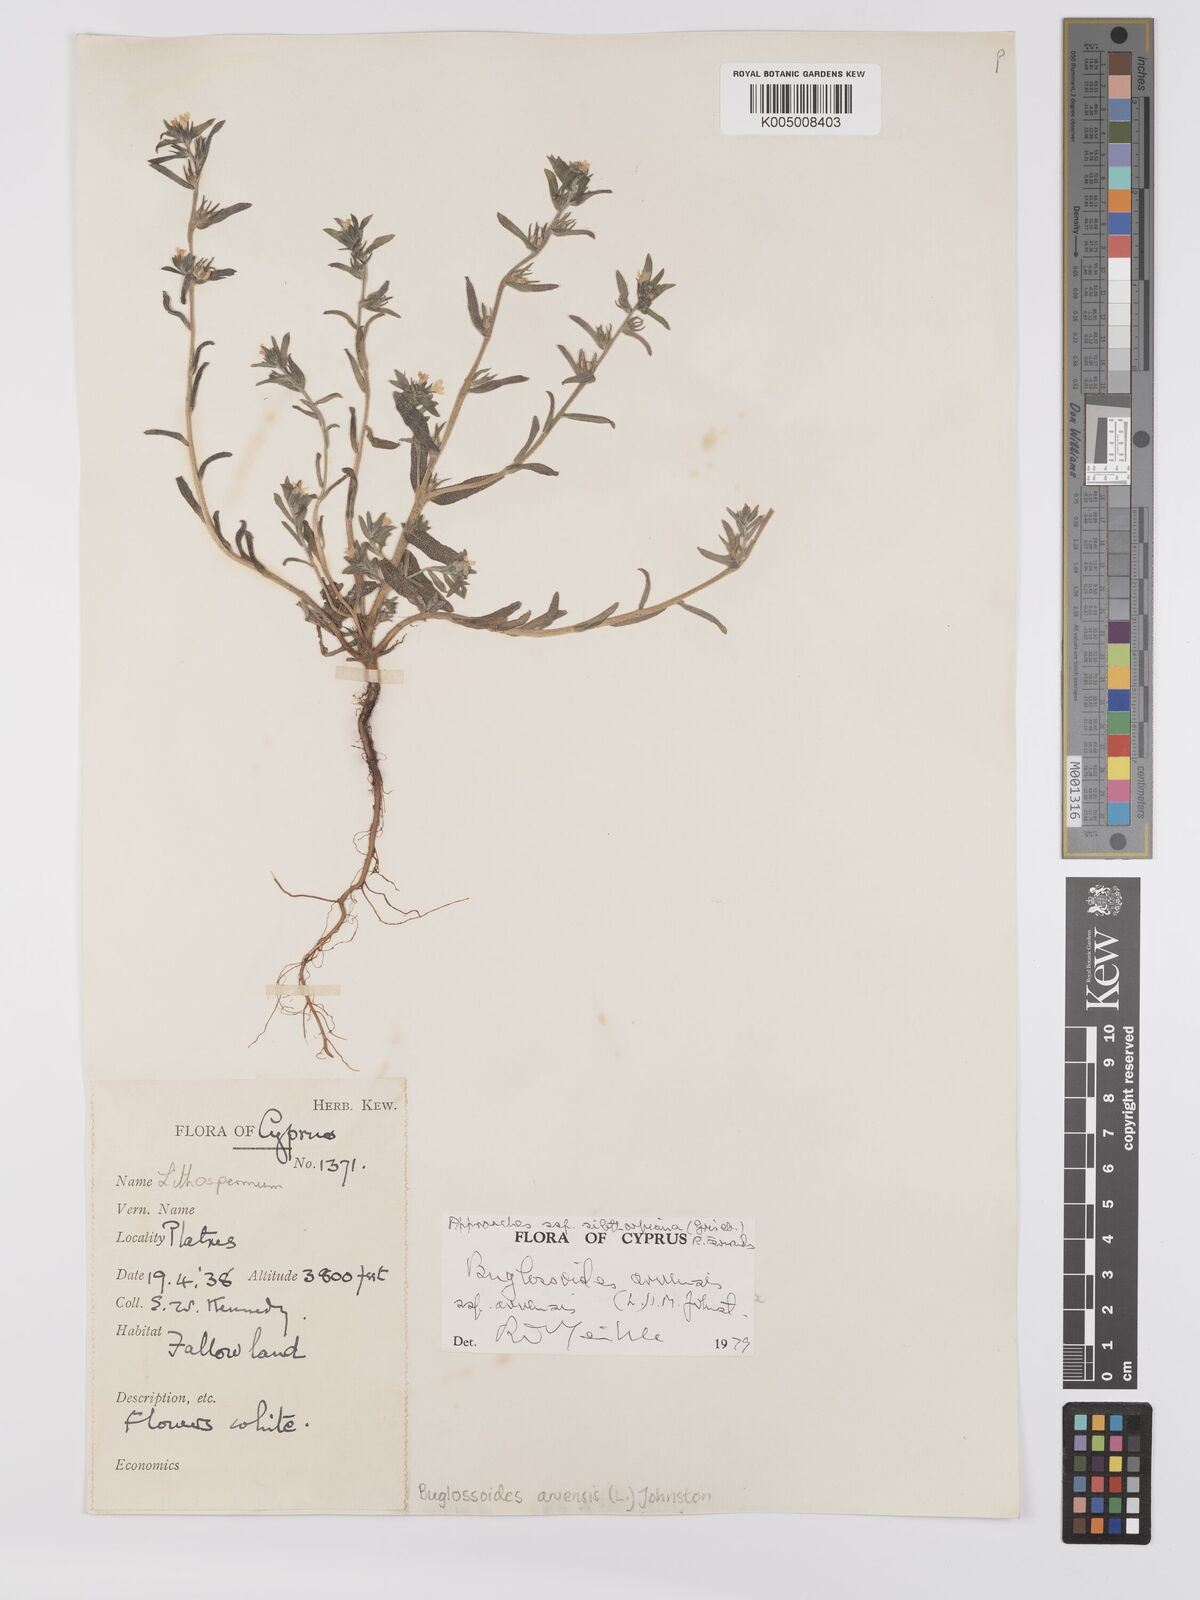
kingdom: Plantae
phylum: Tracheophyta
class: Magnoliopsida
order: Boraginales
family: Boraginaceae
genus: Buglossoides
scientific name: Buglossoides arvensis
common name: Corn gromwell
